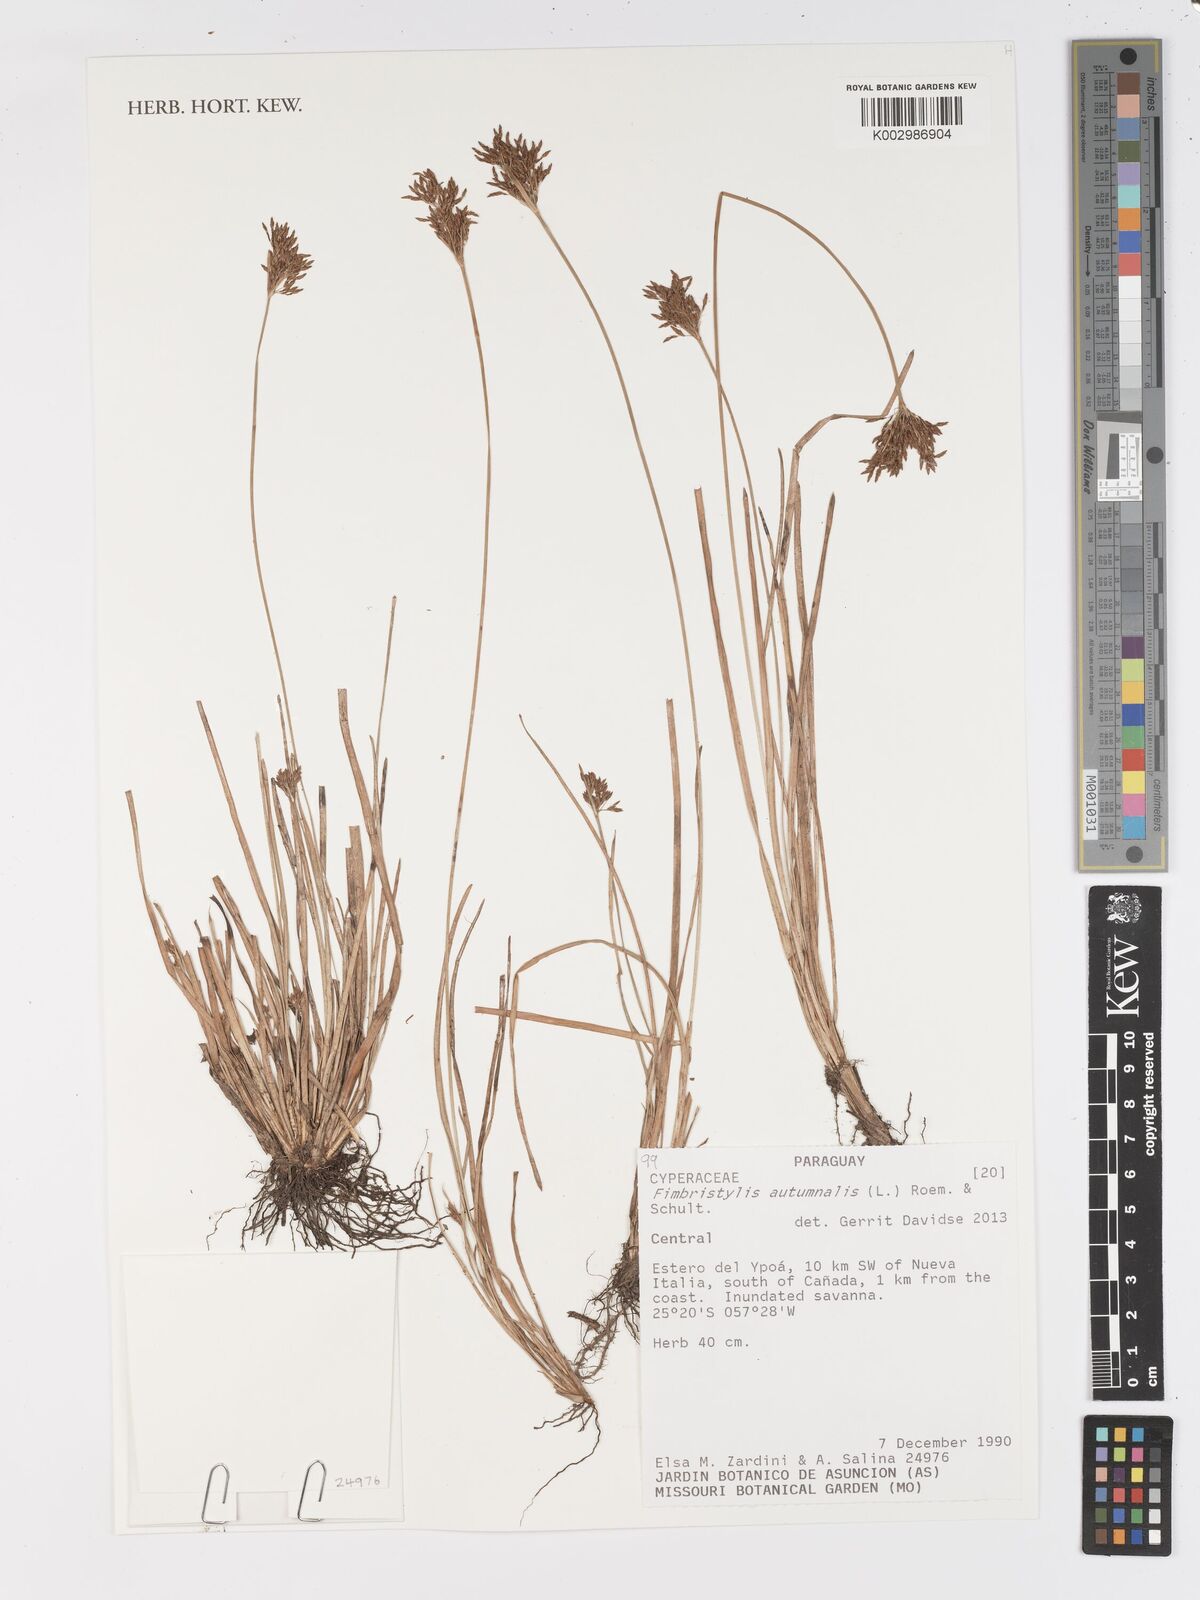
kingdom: Plantae
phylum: Tracheophyta
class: Liliopsida
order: Poales
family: Cyperaceae
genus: Fimbristylis
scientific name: Fimbristylis autumnalis
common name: Slender fimbristylis
